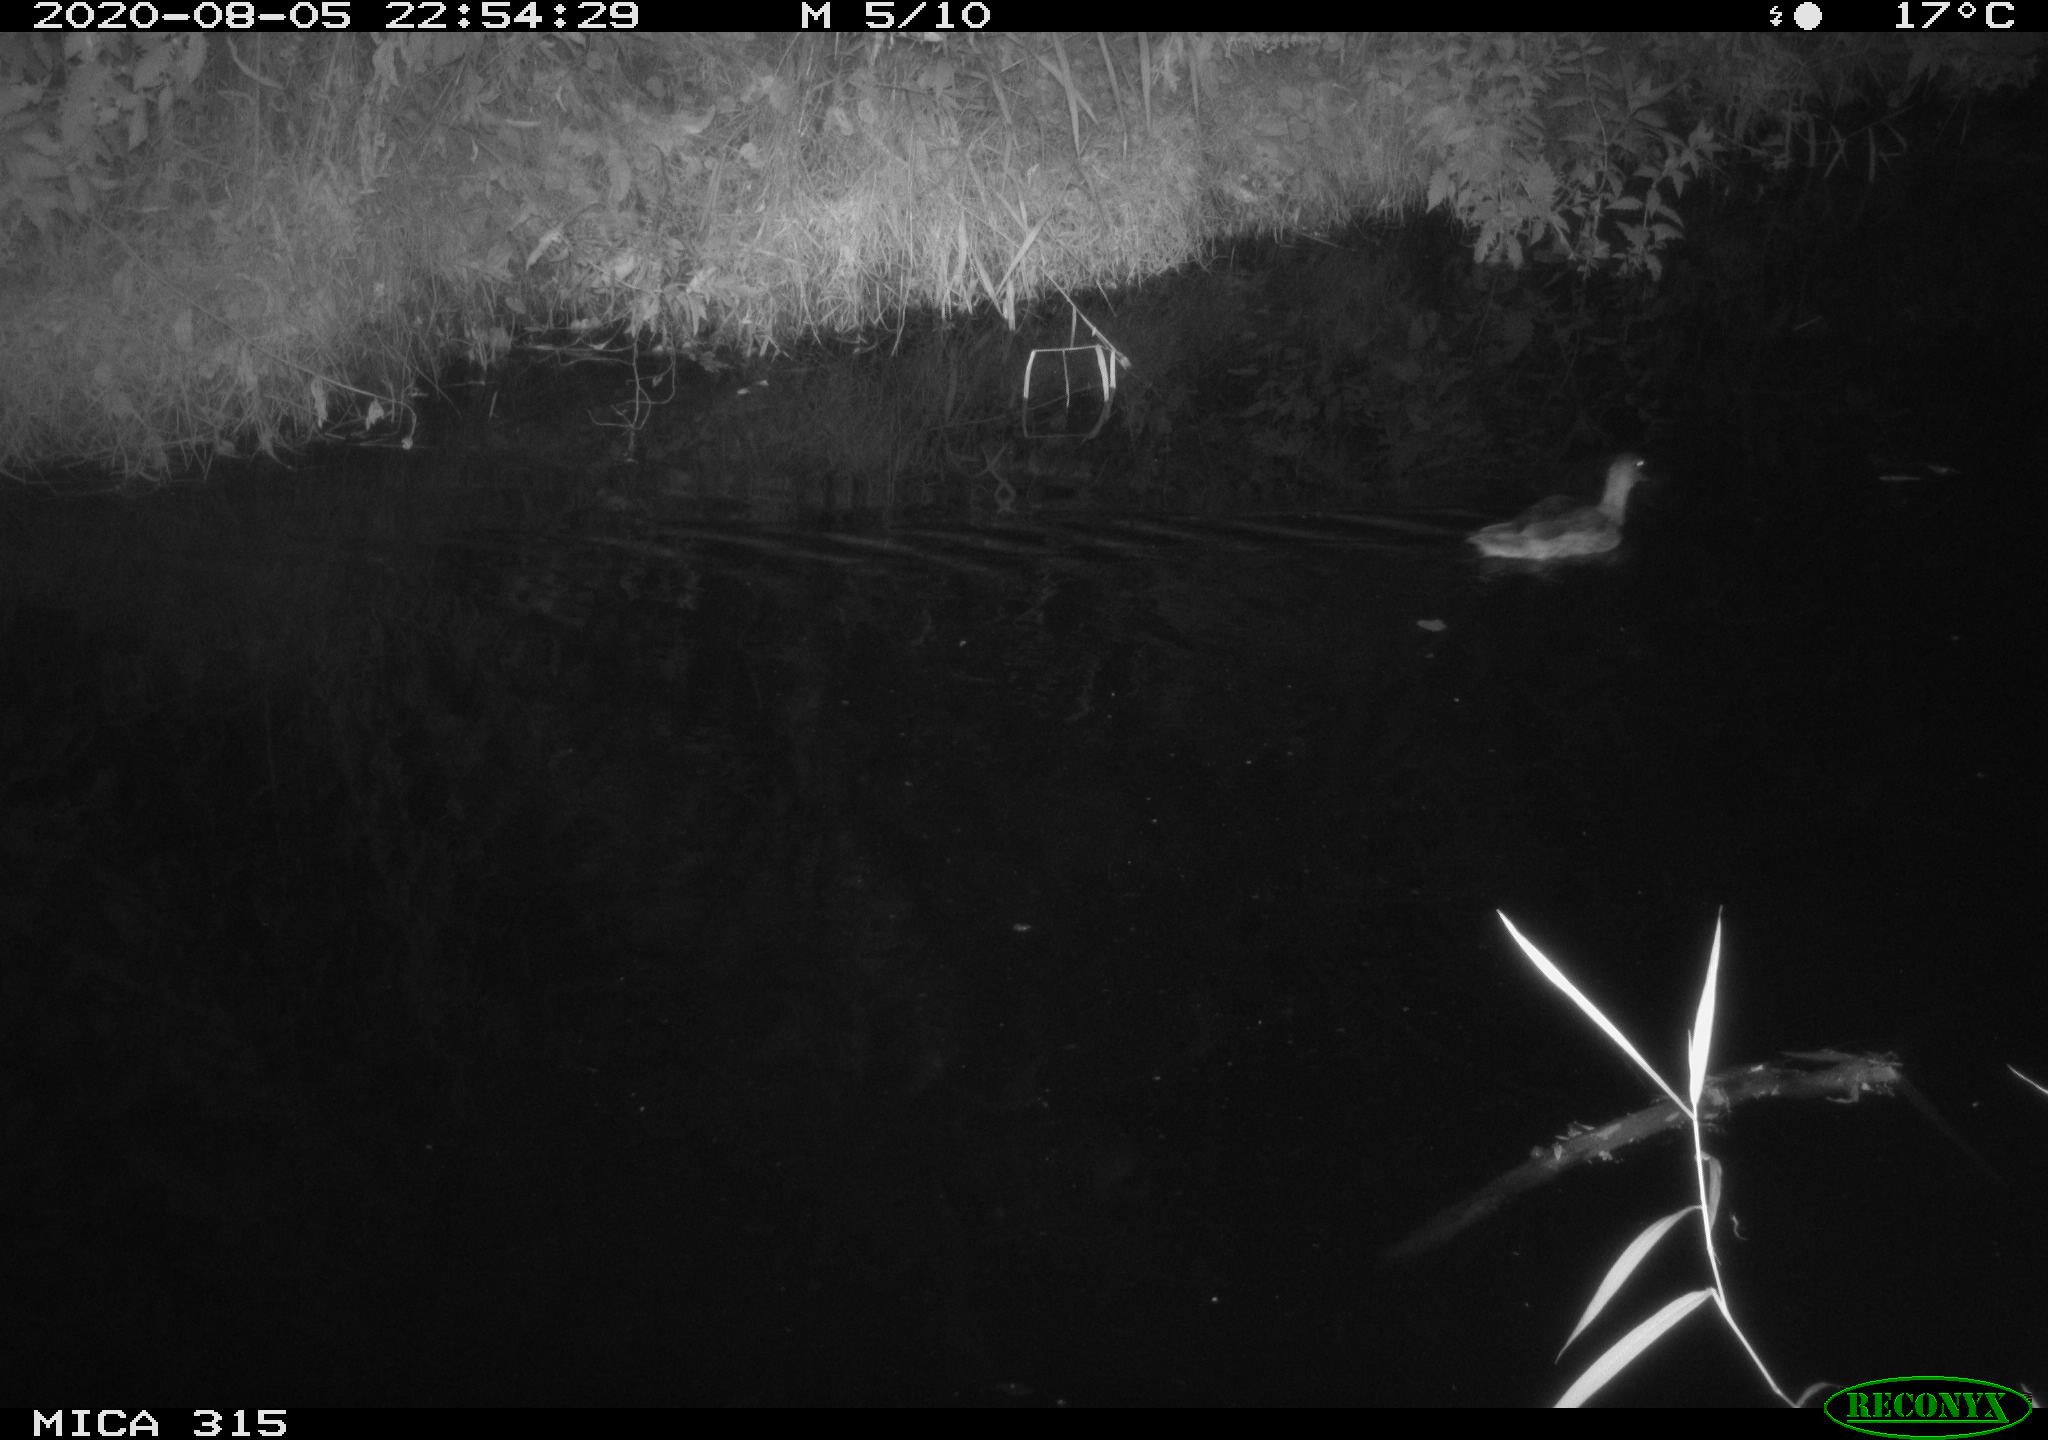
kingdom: Animalia
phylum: Chordata
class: Aves
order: Anseriformes
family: Anatidae
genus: Anas
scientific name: Anas platyrhynchos
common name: Mallard
